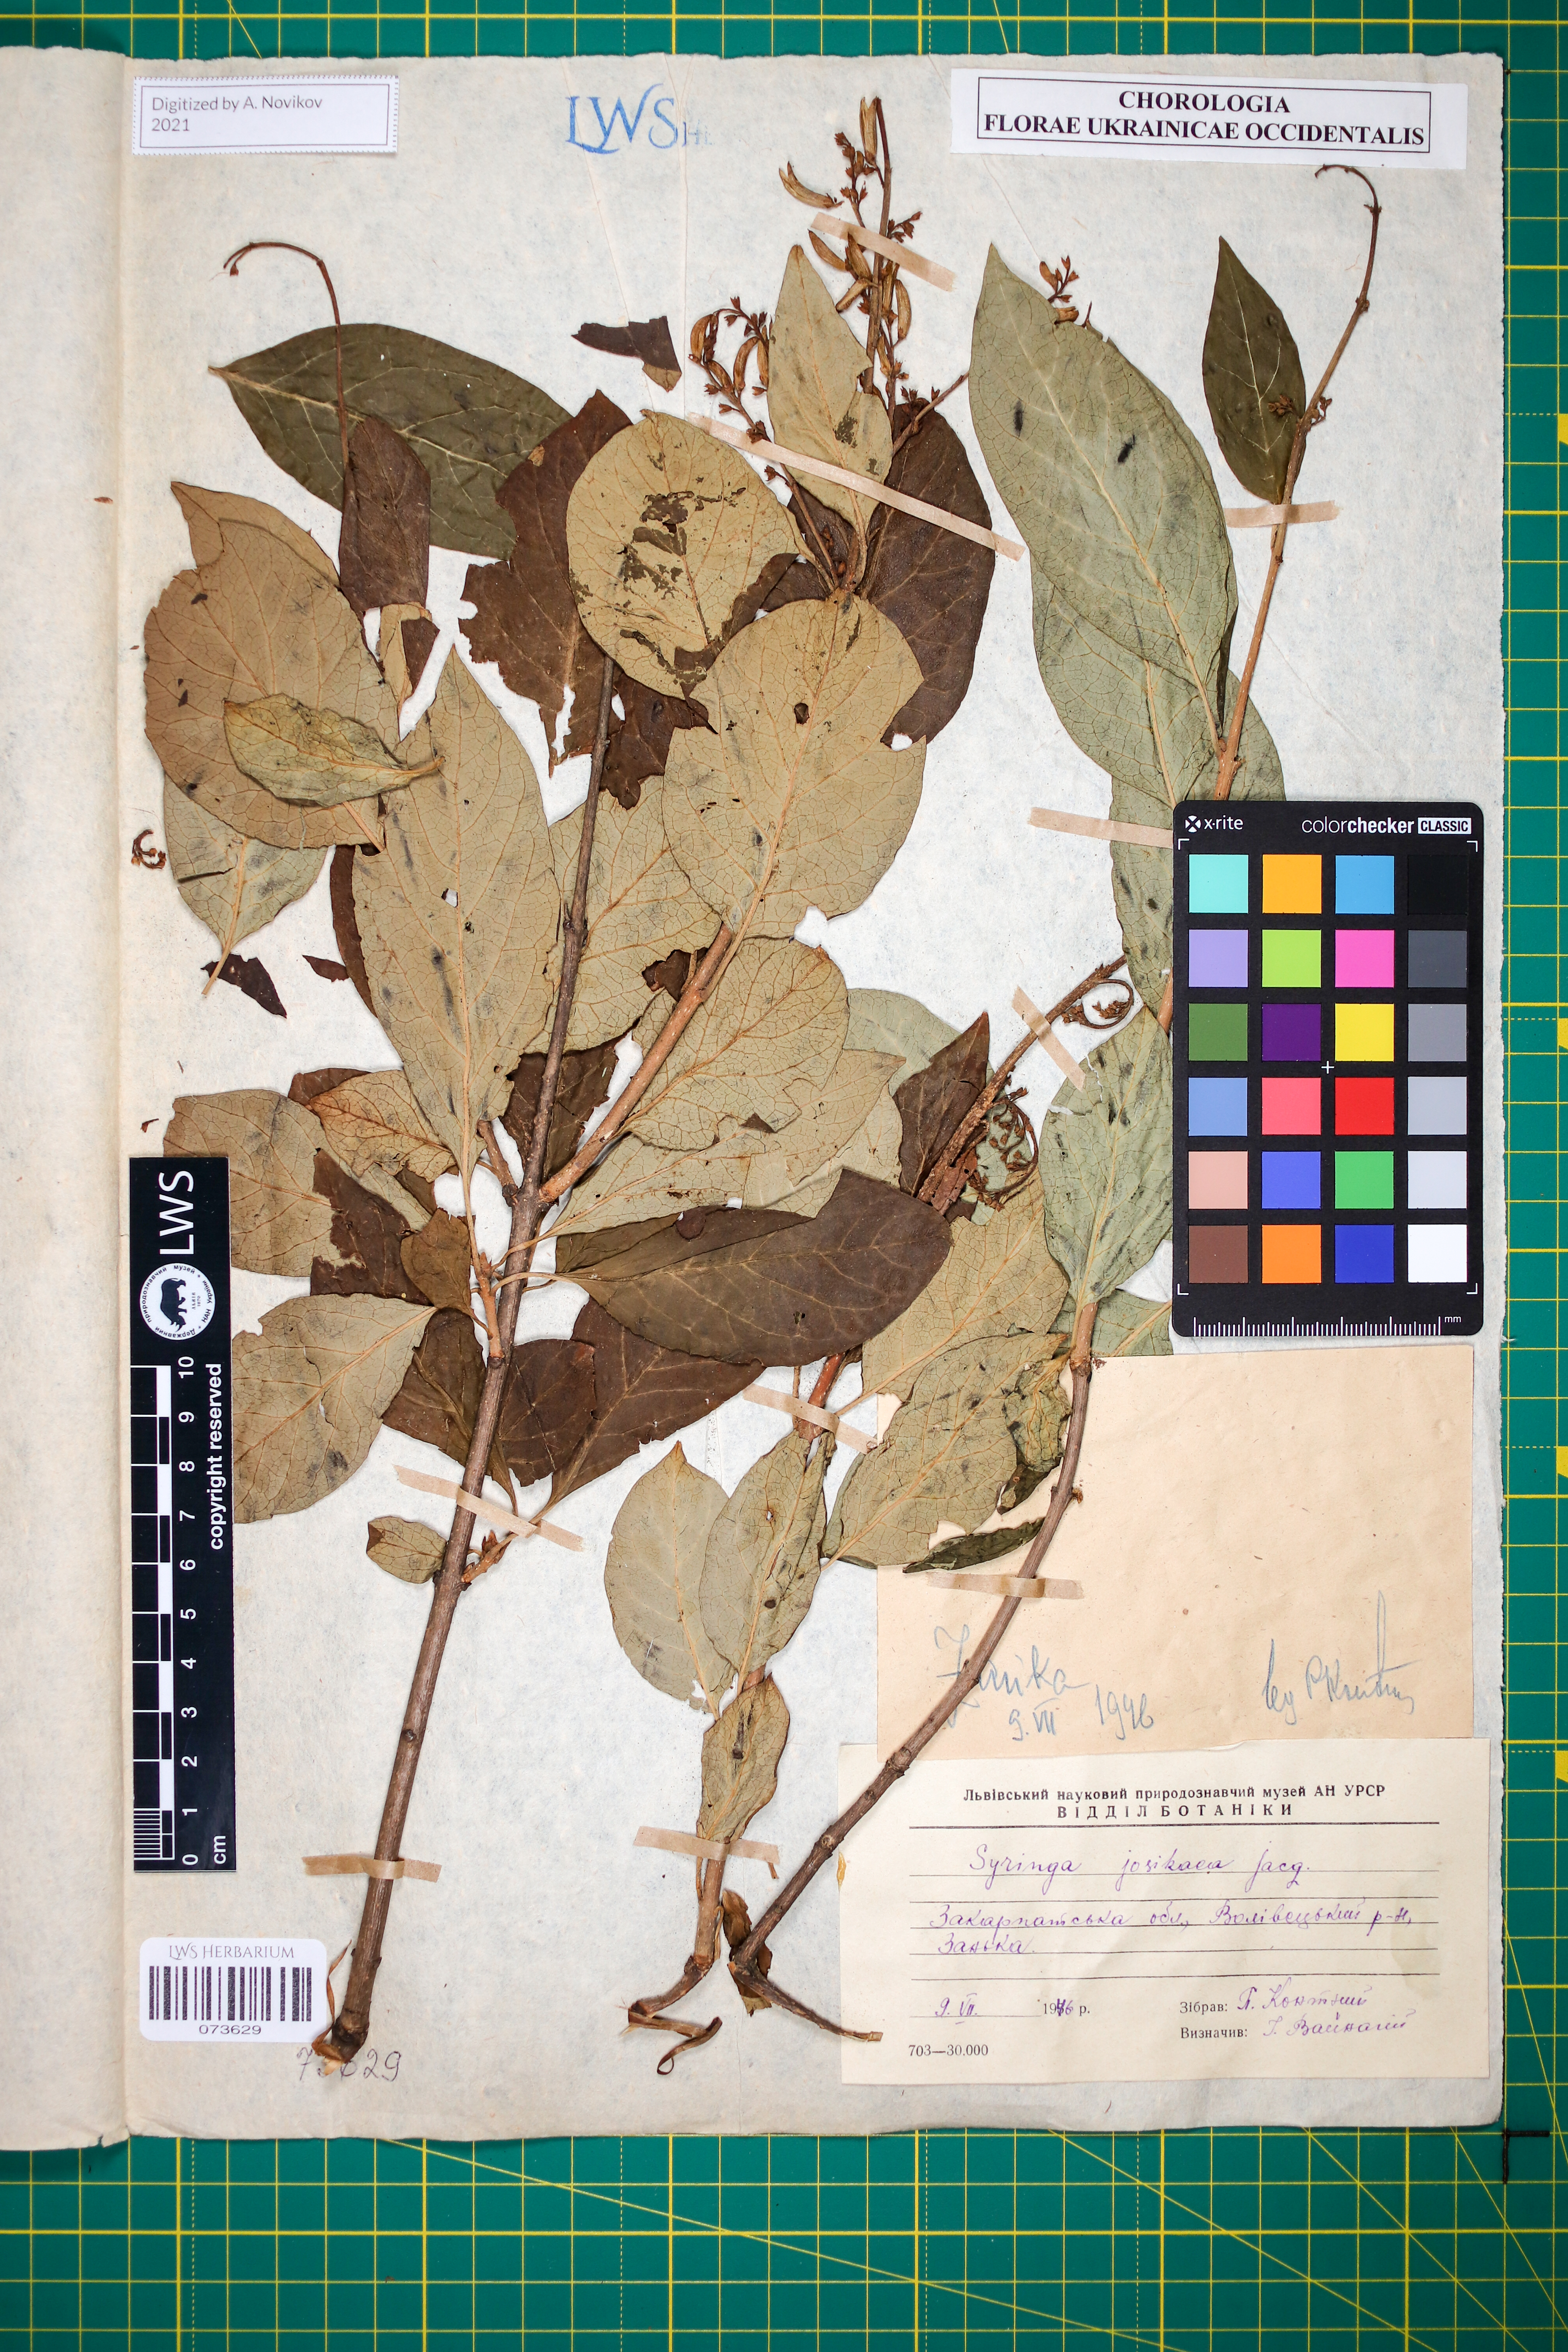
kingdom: Plantae
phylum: Tracheophyta
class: Magnoliopsida
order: Lamiales
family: Oleaceae
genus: Syringa
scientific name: Syringa josikaea
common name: Hungarian lilac
